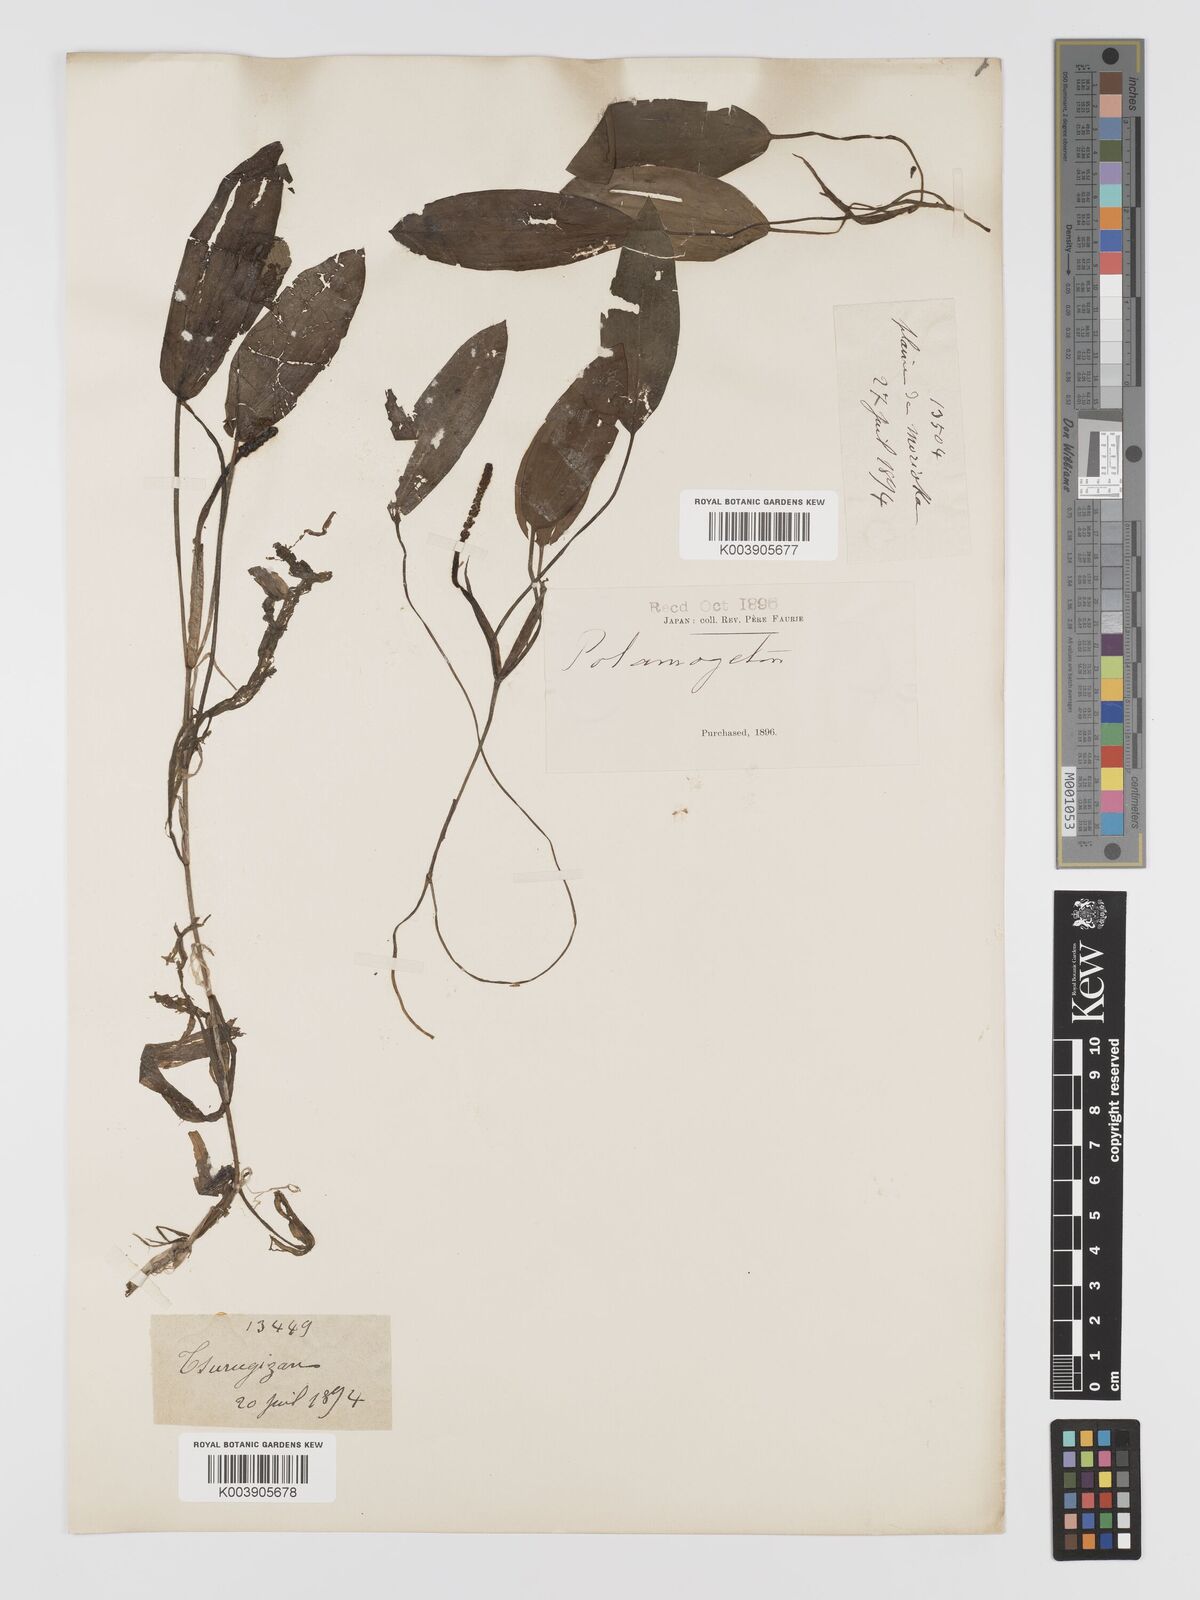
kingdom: Plantae
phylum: Tracheophyta
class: Liliopsida
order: Alismatales
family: Potamogetonaceae
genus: Potamogeton
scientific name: Potamogeton distinctus
